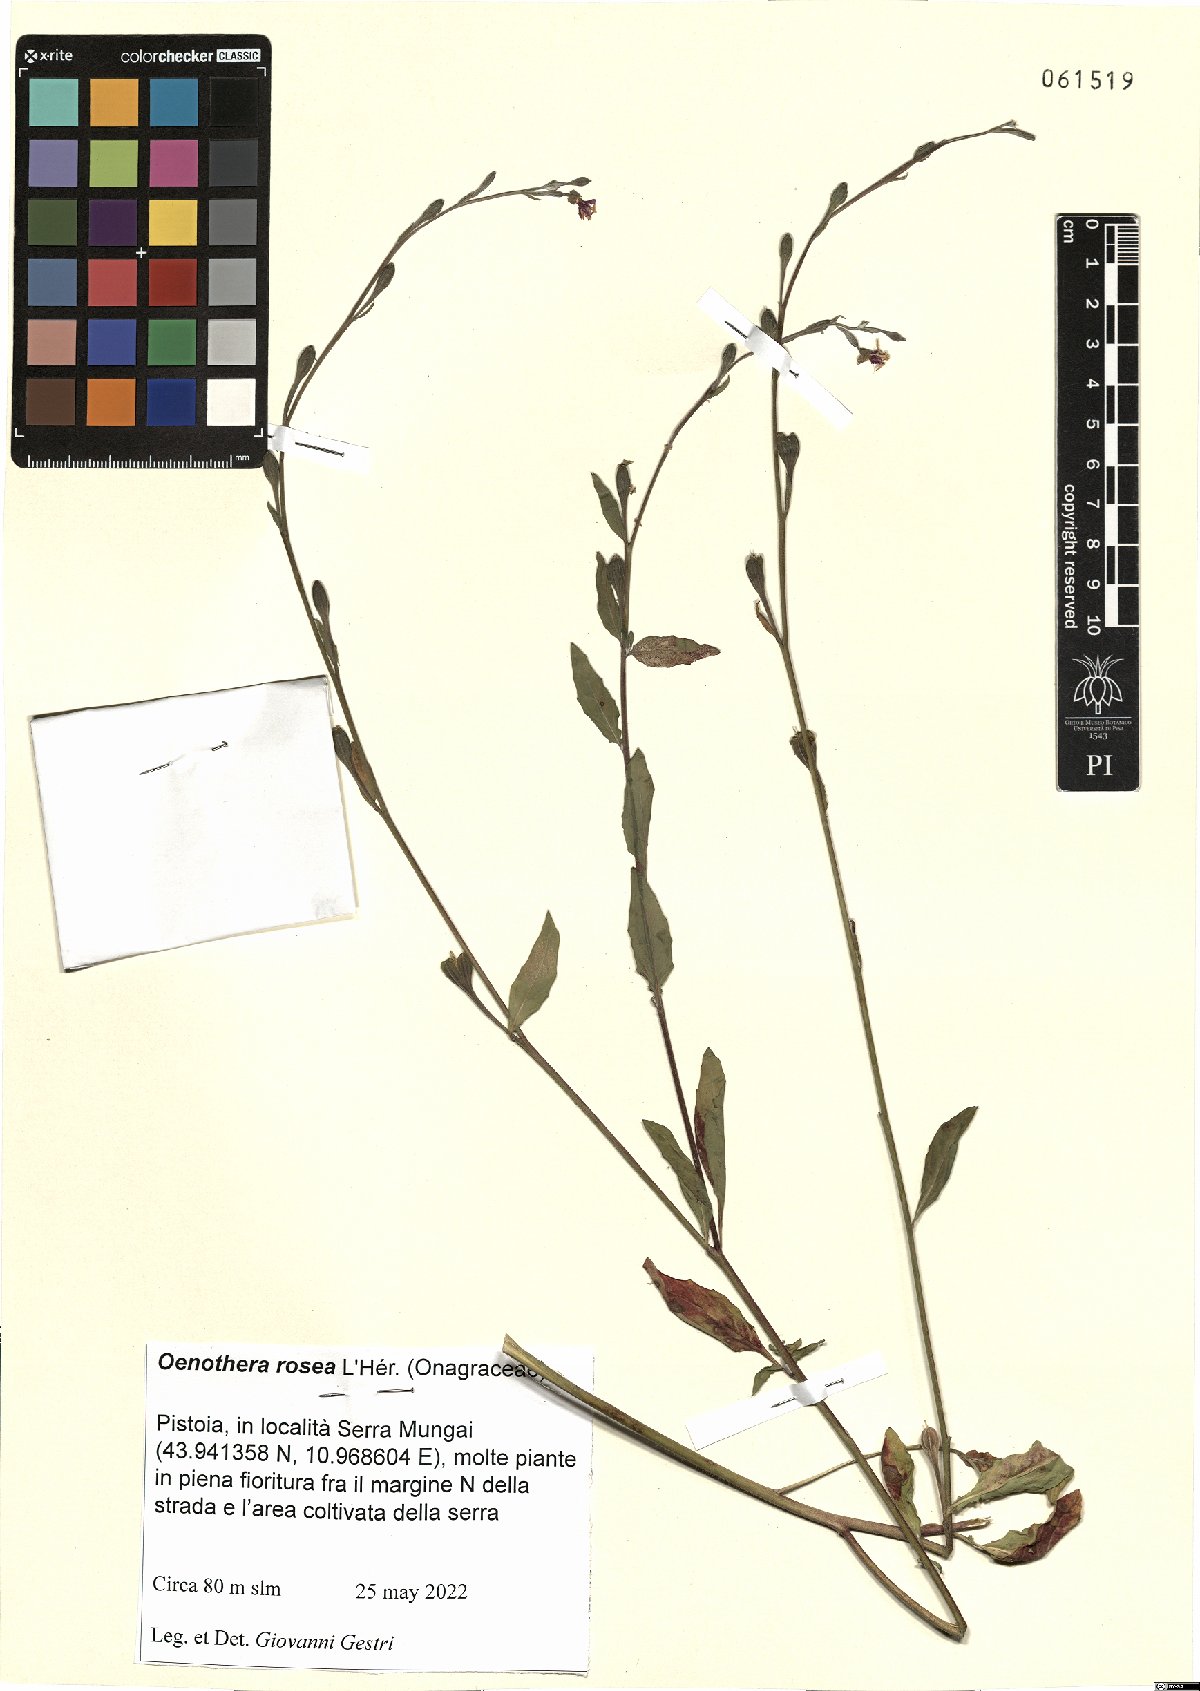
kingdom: Plantae
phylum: Tracheophyta
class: Magnoliopsida
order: Myrtales
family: Onagraceae
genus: Oenothera
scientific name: Oenothera rosea
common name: Rosy evening-primrose
